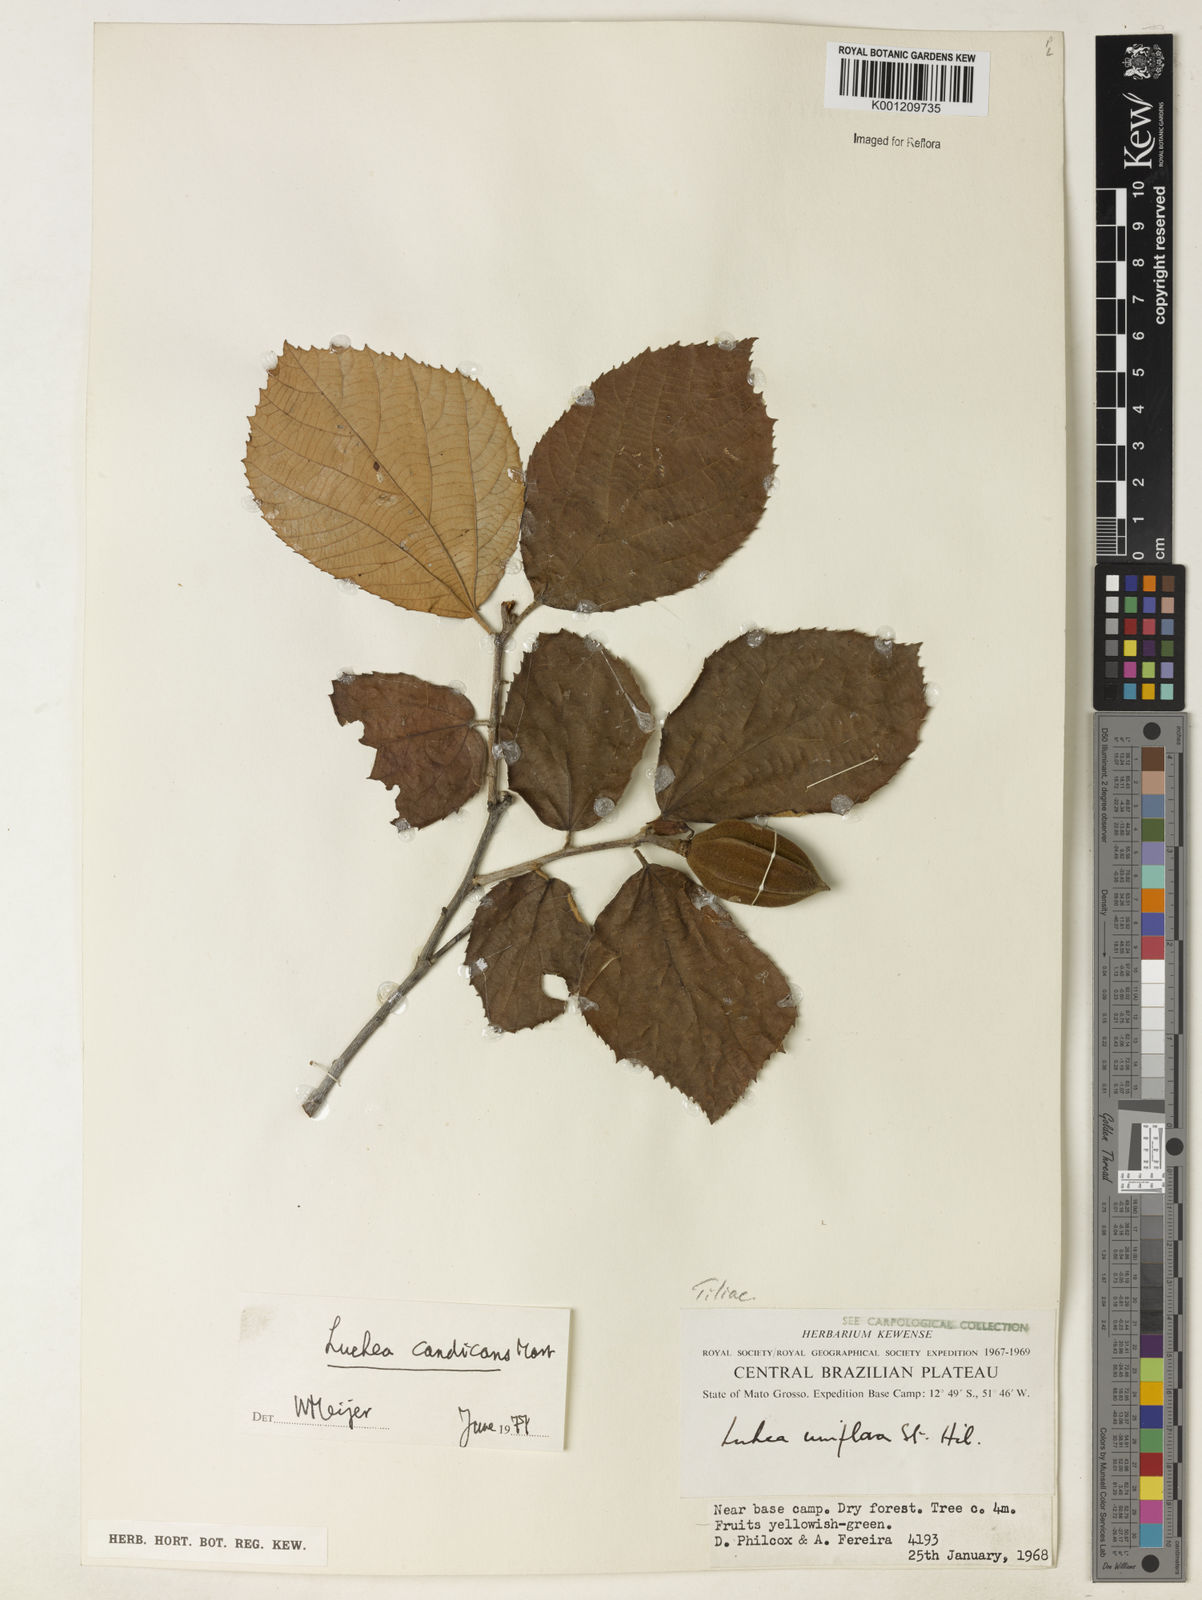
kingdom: Plantae
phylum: Tracheophyta
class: Magnoliopsida
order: Malvales
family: Malvaceae
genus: Luehea
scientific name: Luehea candicans
